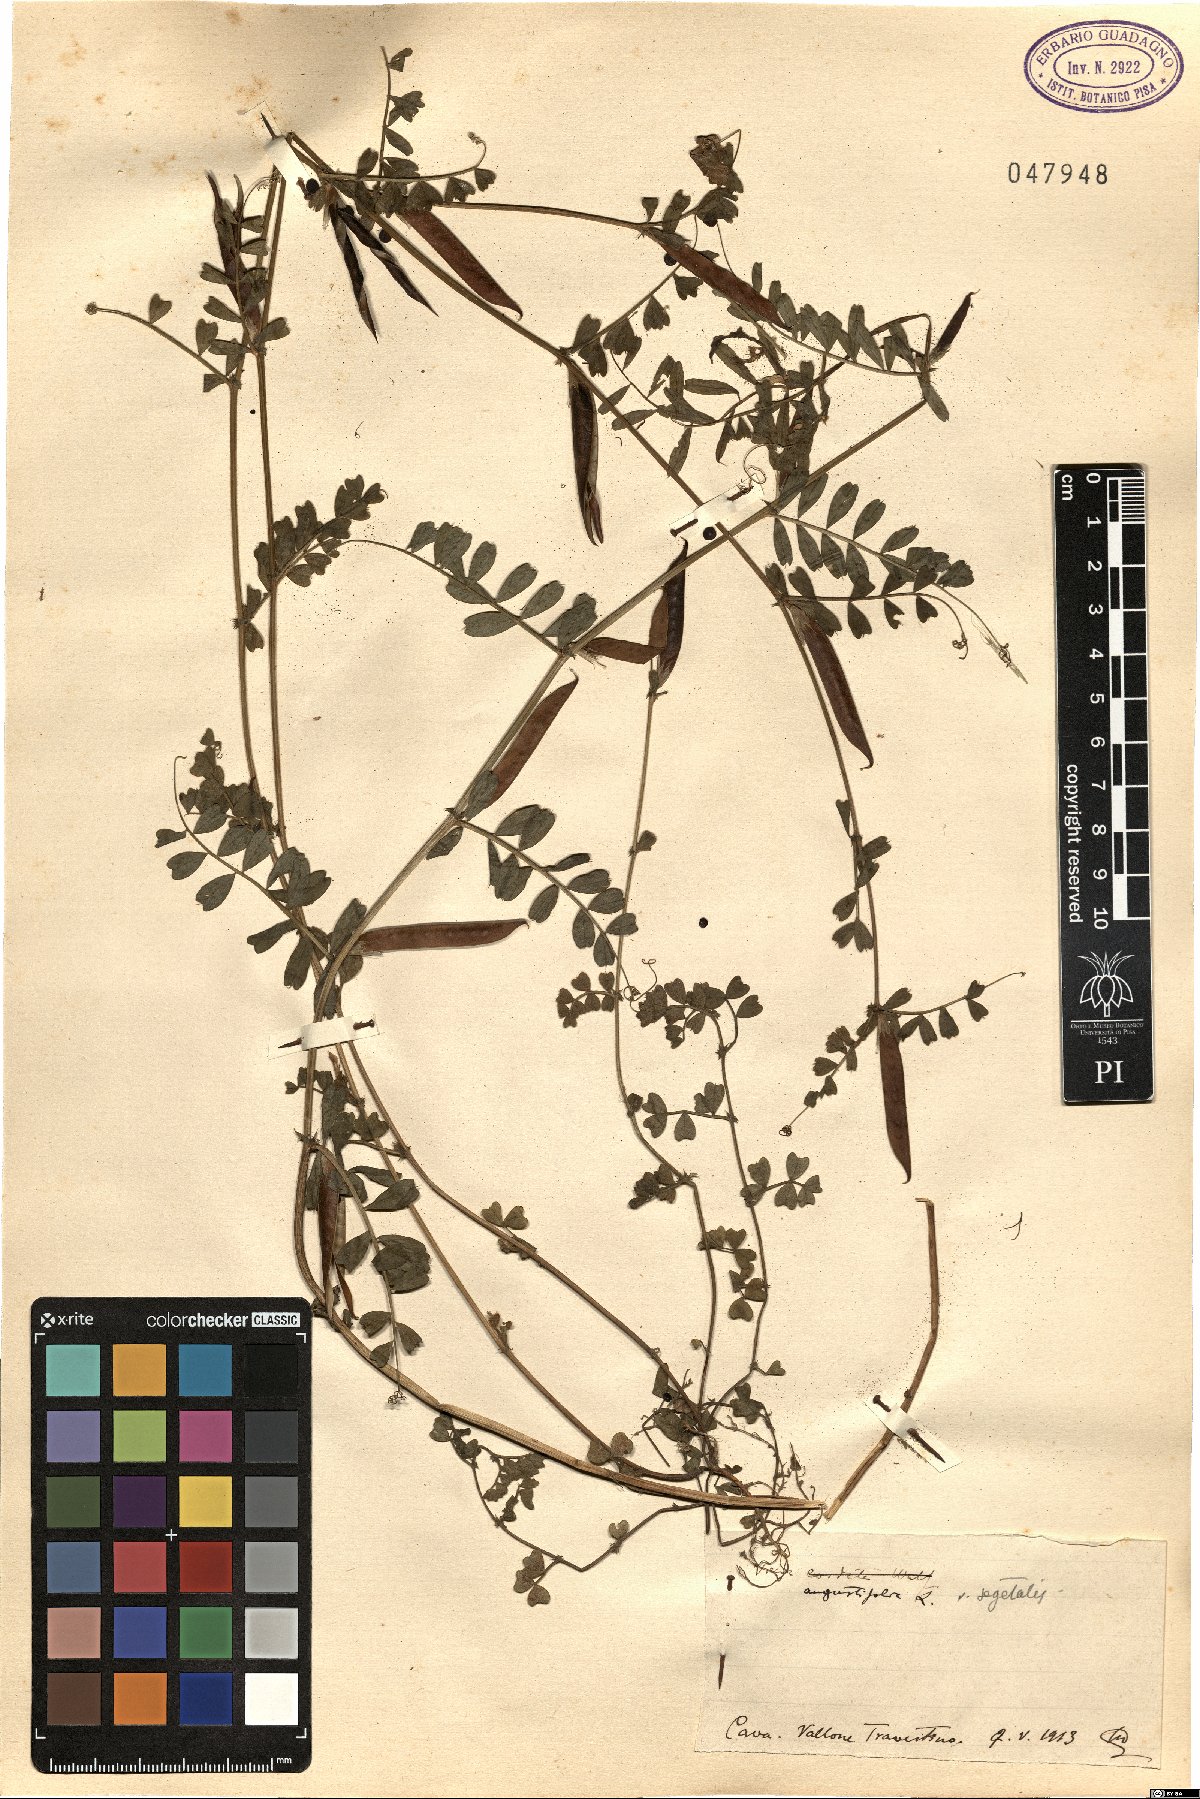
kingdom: Plantae
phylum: Tracheophyta
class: Magnoliopsida
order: Fabales
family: Fabaceae
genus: Vicia
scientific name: Vicia sativa
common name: Garden vetch
